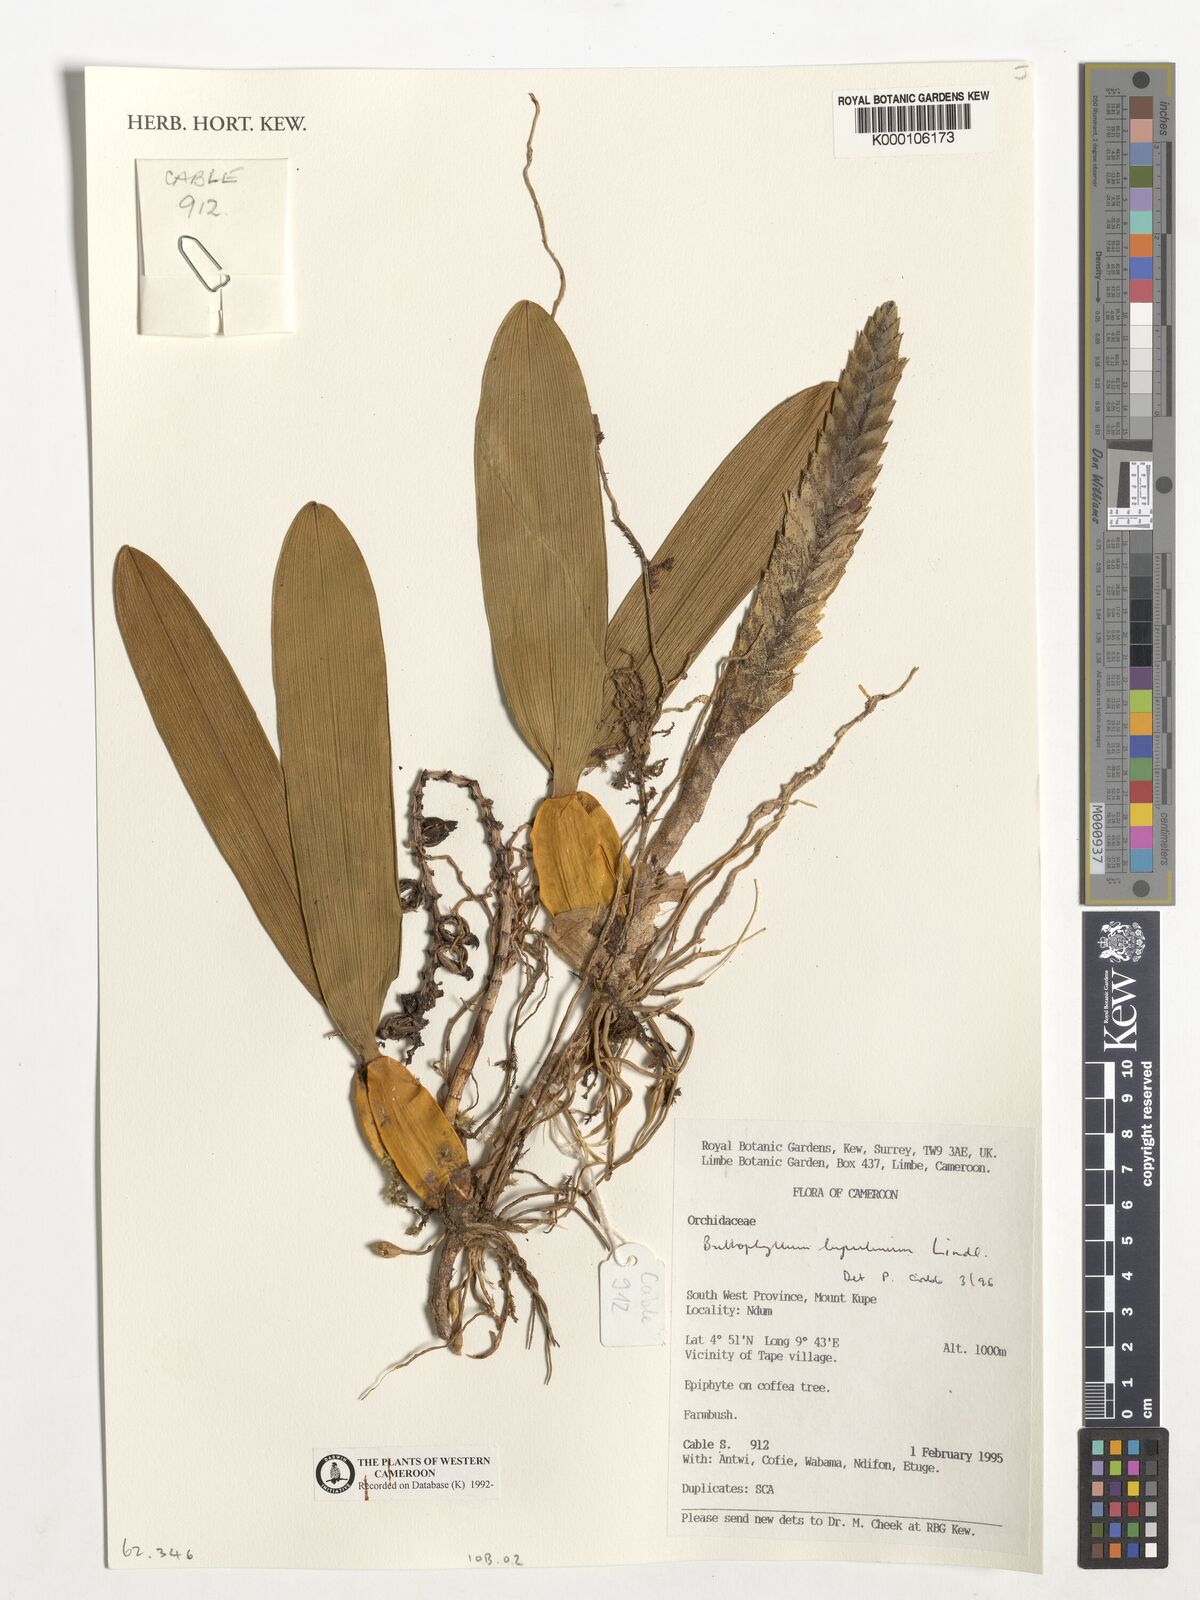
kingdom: Plantae
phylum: Tracheophyta
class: Liliopsida
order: Asparagales
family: Orchidaceae
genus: Bulbophyllum
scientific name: Bulbophyllum lupulinum
